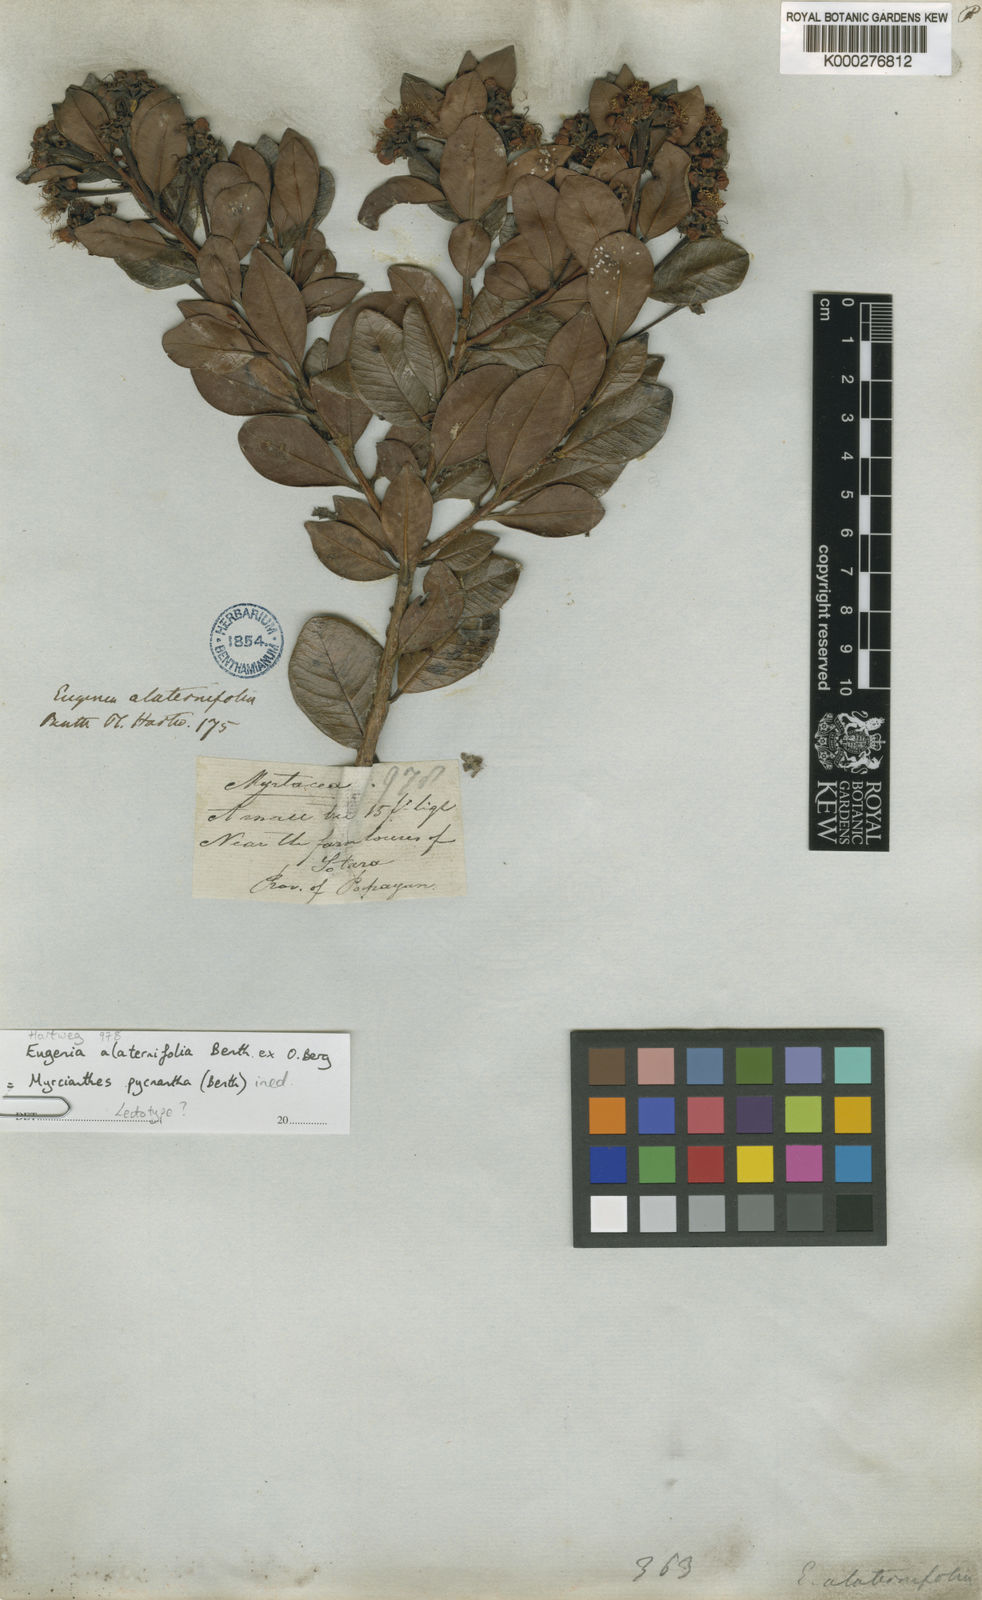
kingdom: Plantae
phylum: Tracheophyta
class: Magnoliopsida
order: Myrtales
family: Myrtaceae
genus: Myrcianthes
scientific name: Myrcianthes
